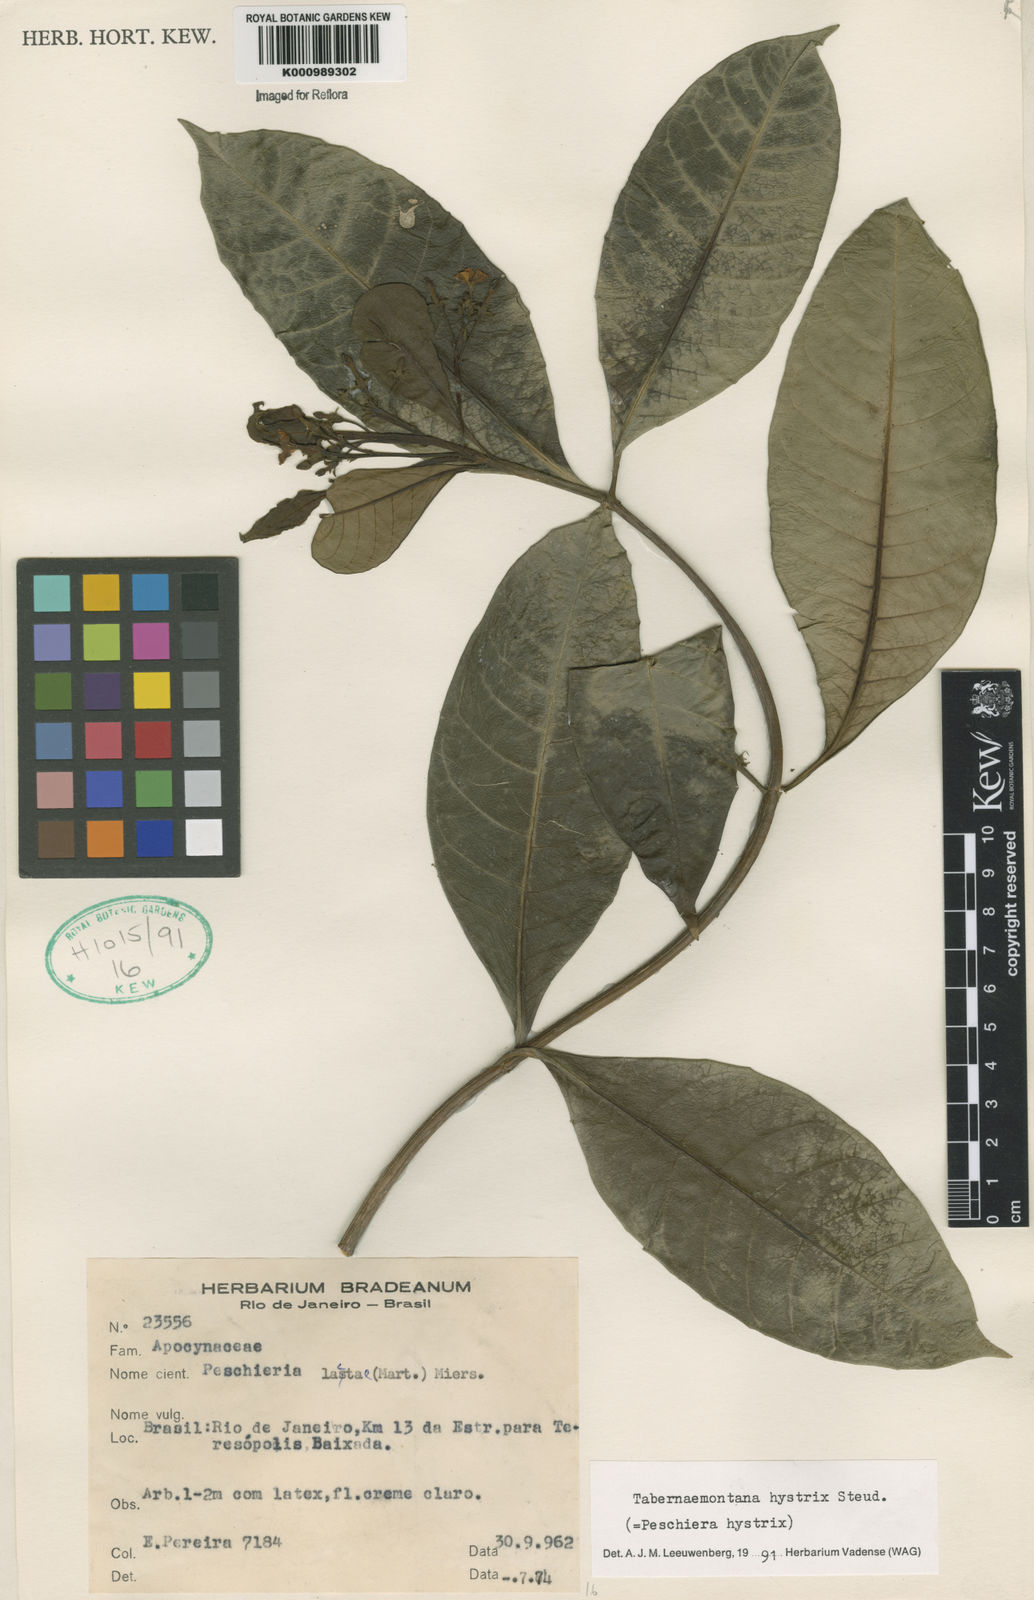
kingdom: Plantae
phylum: Tracheophyta
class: Magnoliopsida
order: Gentianales
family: Apocynaceae
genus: Tabernaemontana
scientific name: Tabernaemontana hystrix
